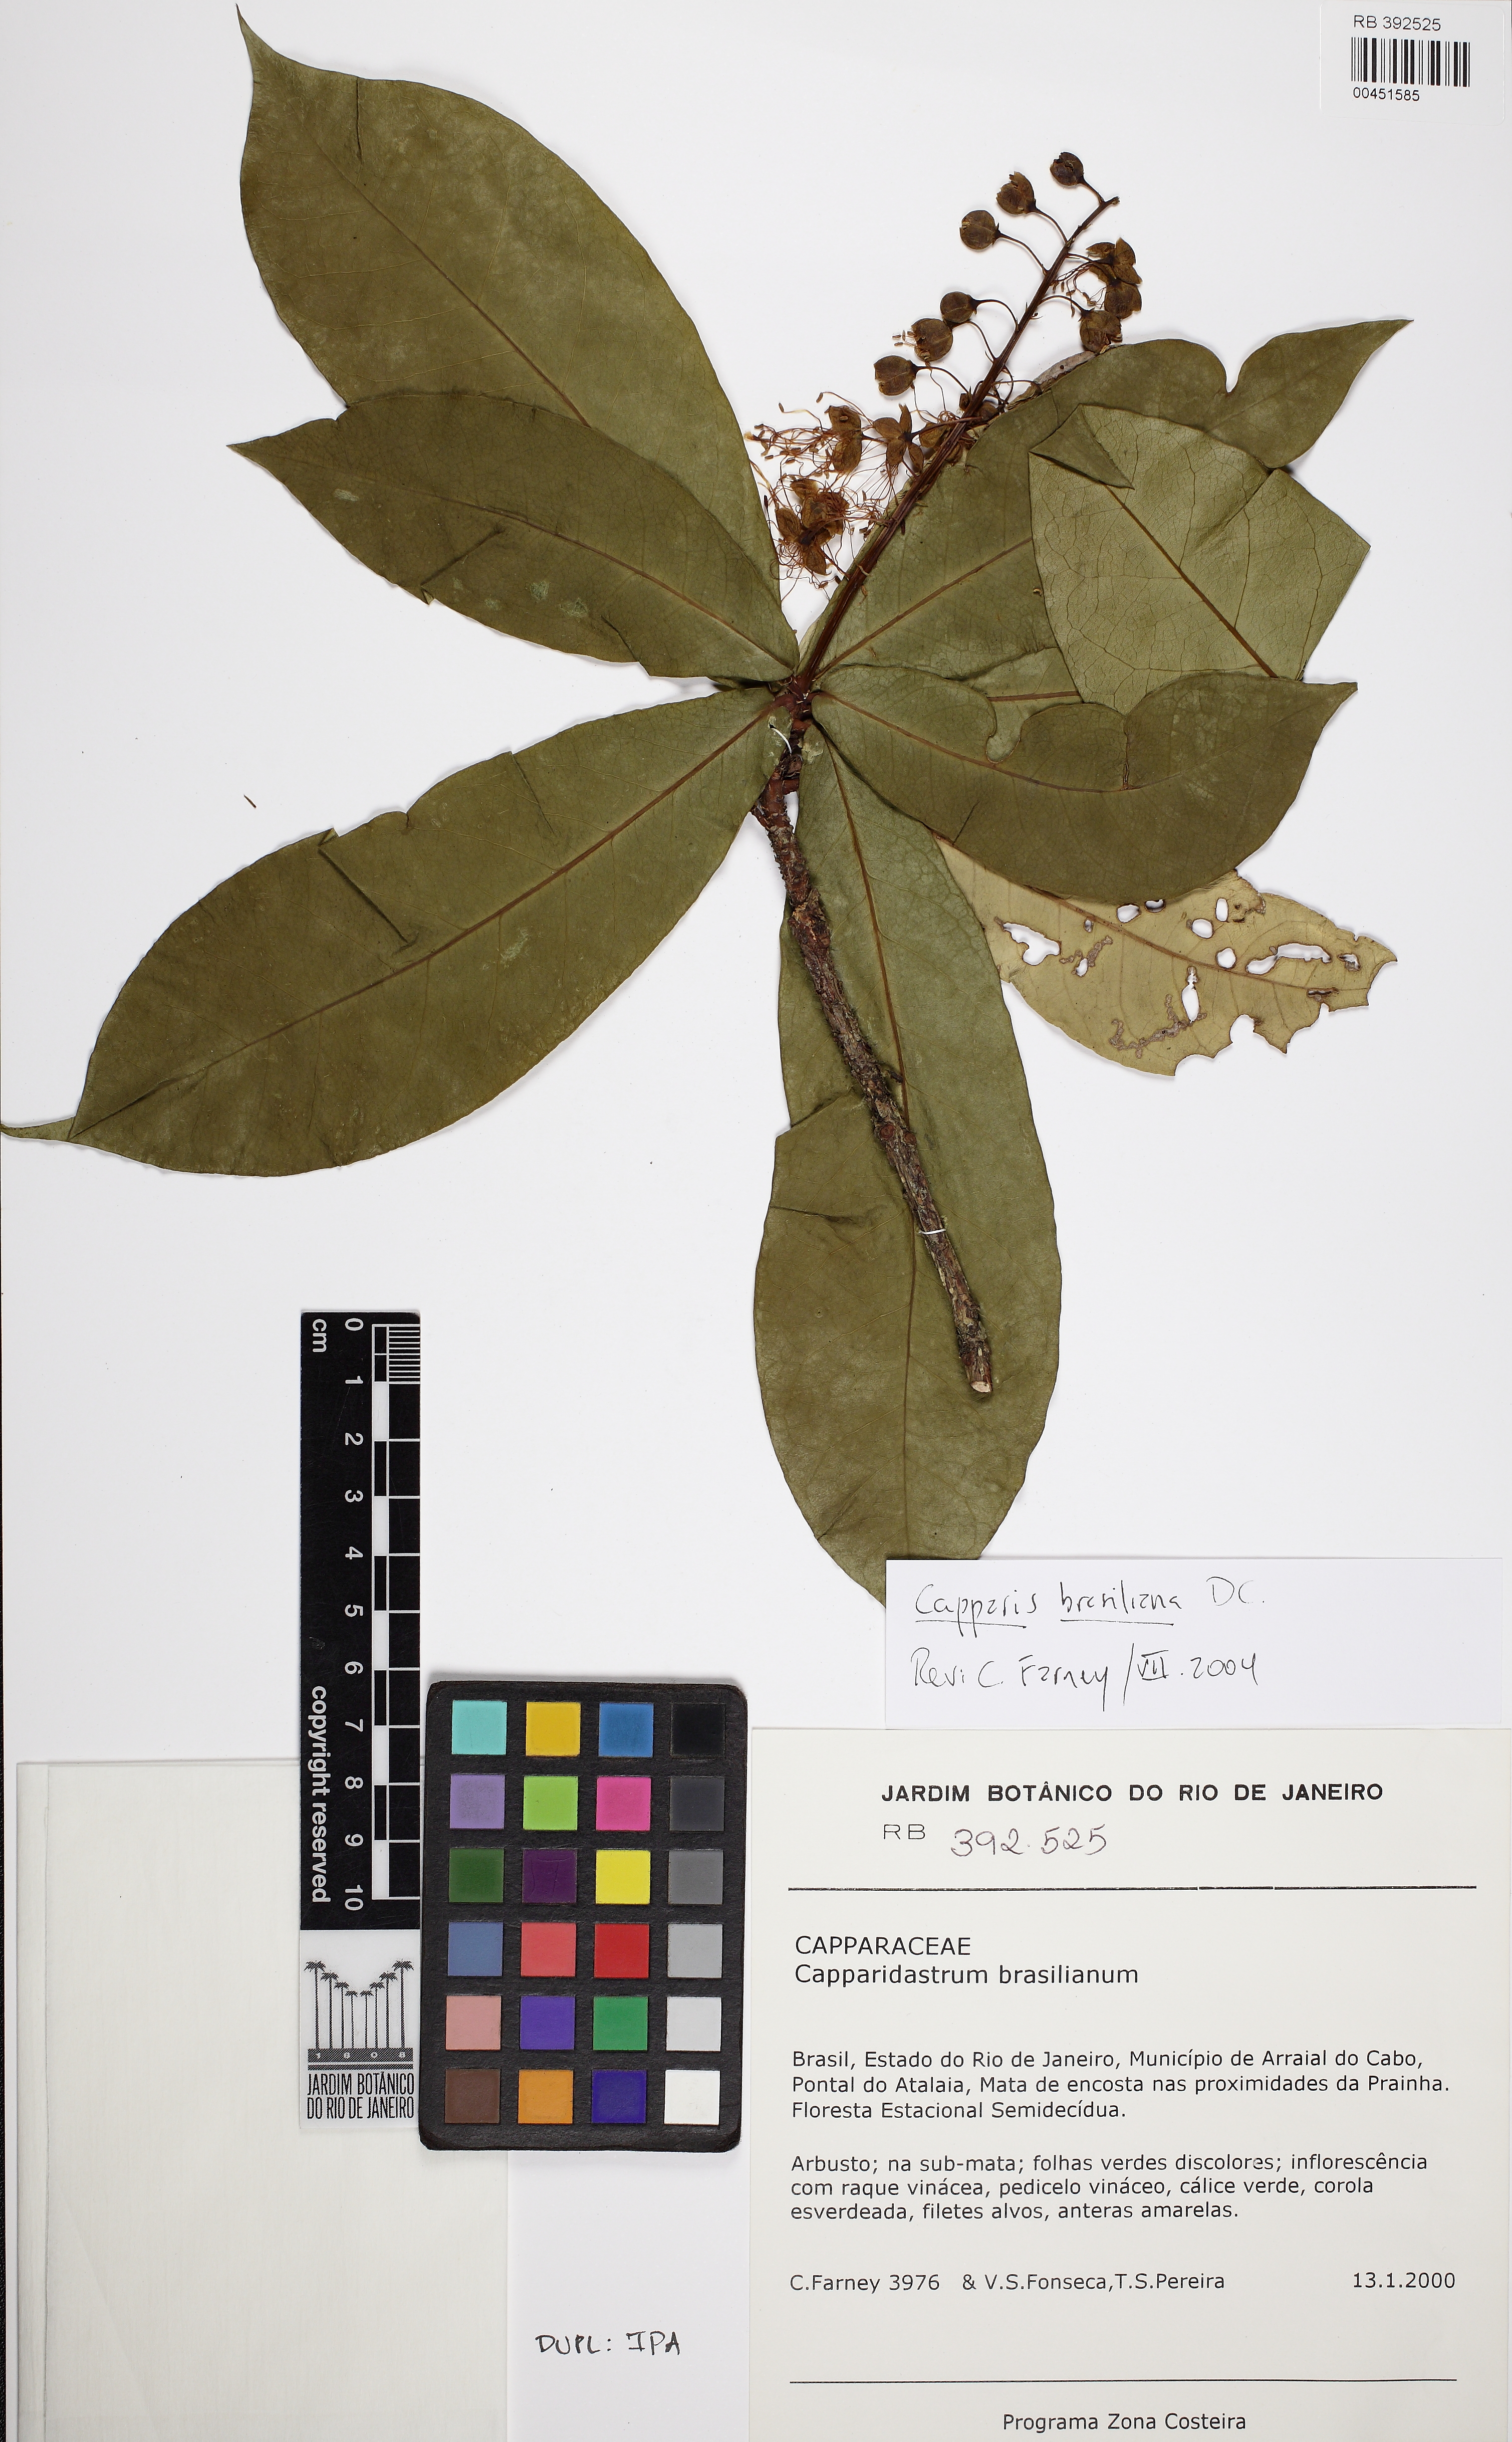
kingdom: Plantae
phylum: Tracheophyta
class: Magnoliopsida
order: Brassicales
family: Capparaceae
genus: Monilicarpa
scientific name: Monilicarpa brasiliana
